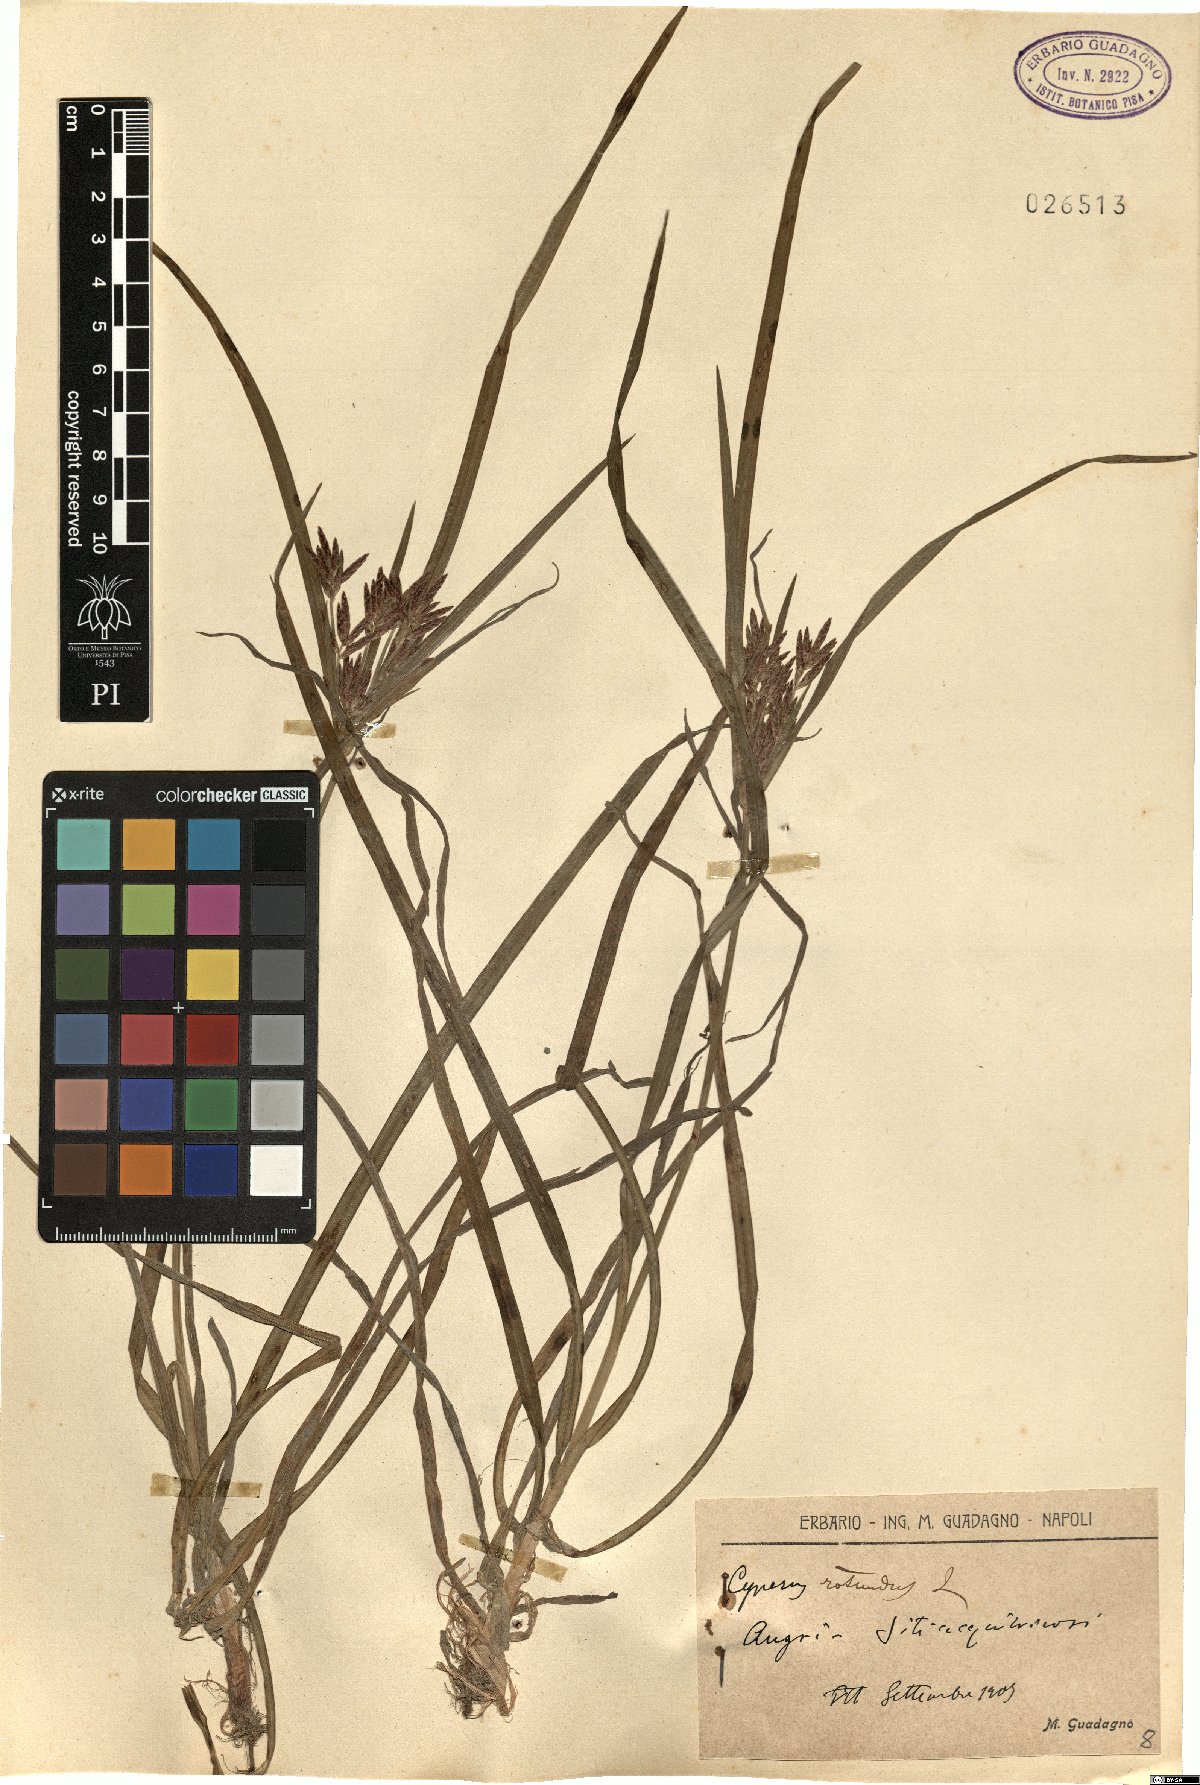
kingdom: Plantae
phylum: Tracheophyta
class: Liliopsida
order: Poales
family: Cyperaceae
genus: Cyperus
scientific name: Cyperus rotundus
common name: Nutgrass
